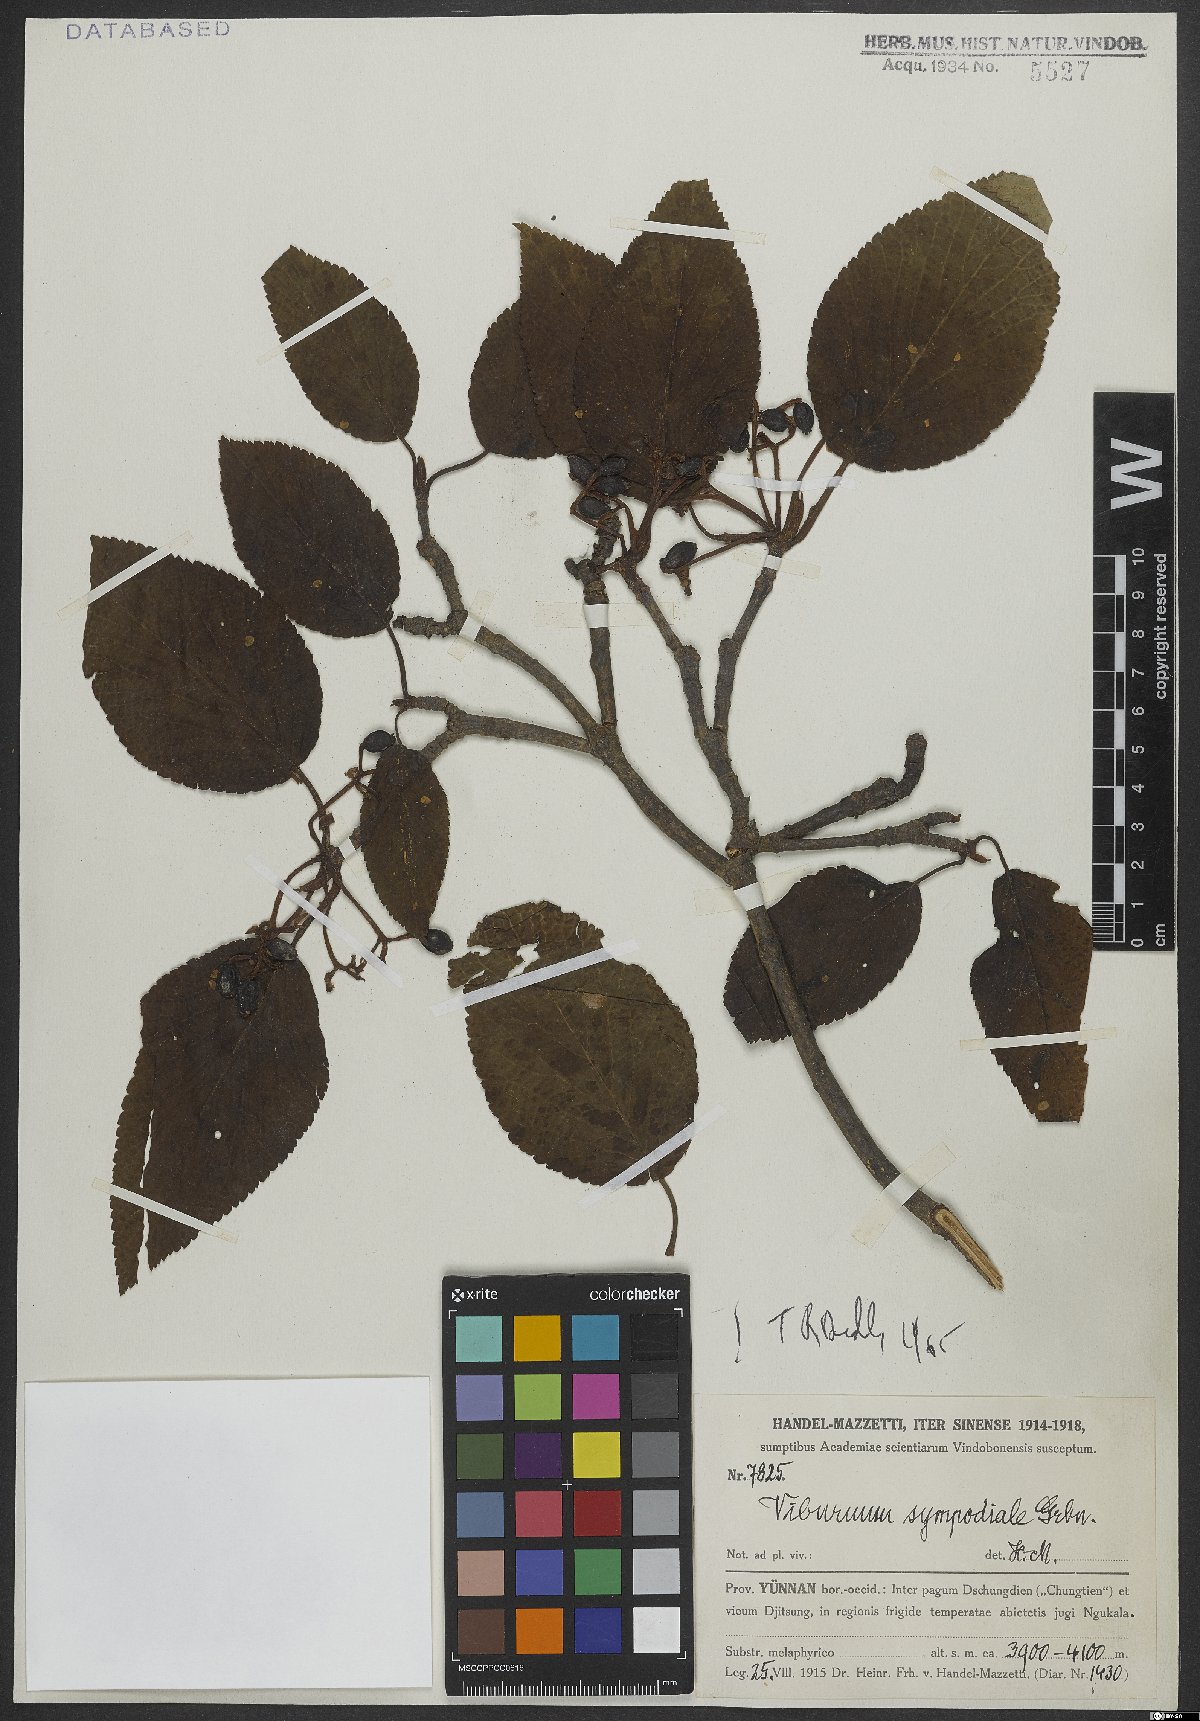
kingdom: Plantae
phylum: Tracheophyta
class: Magnoliopsida
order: Dipsacales
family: Viburnaceae
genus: Viburnum
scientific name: Viburnum sympodiale
